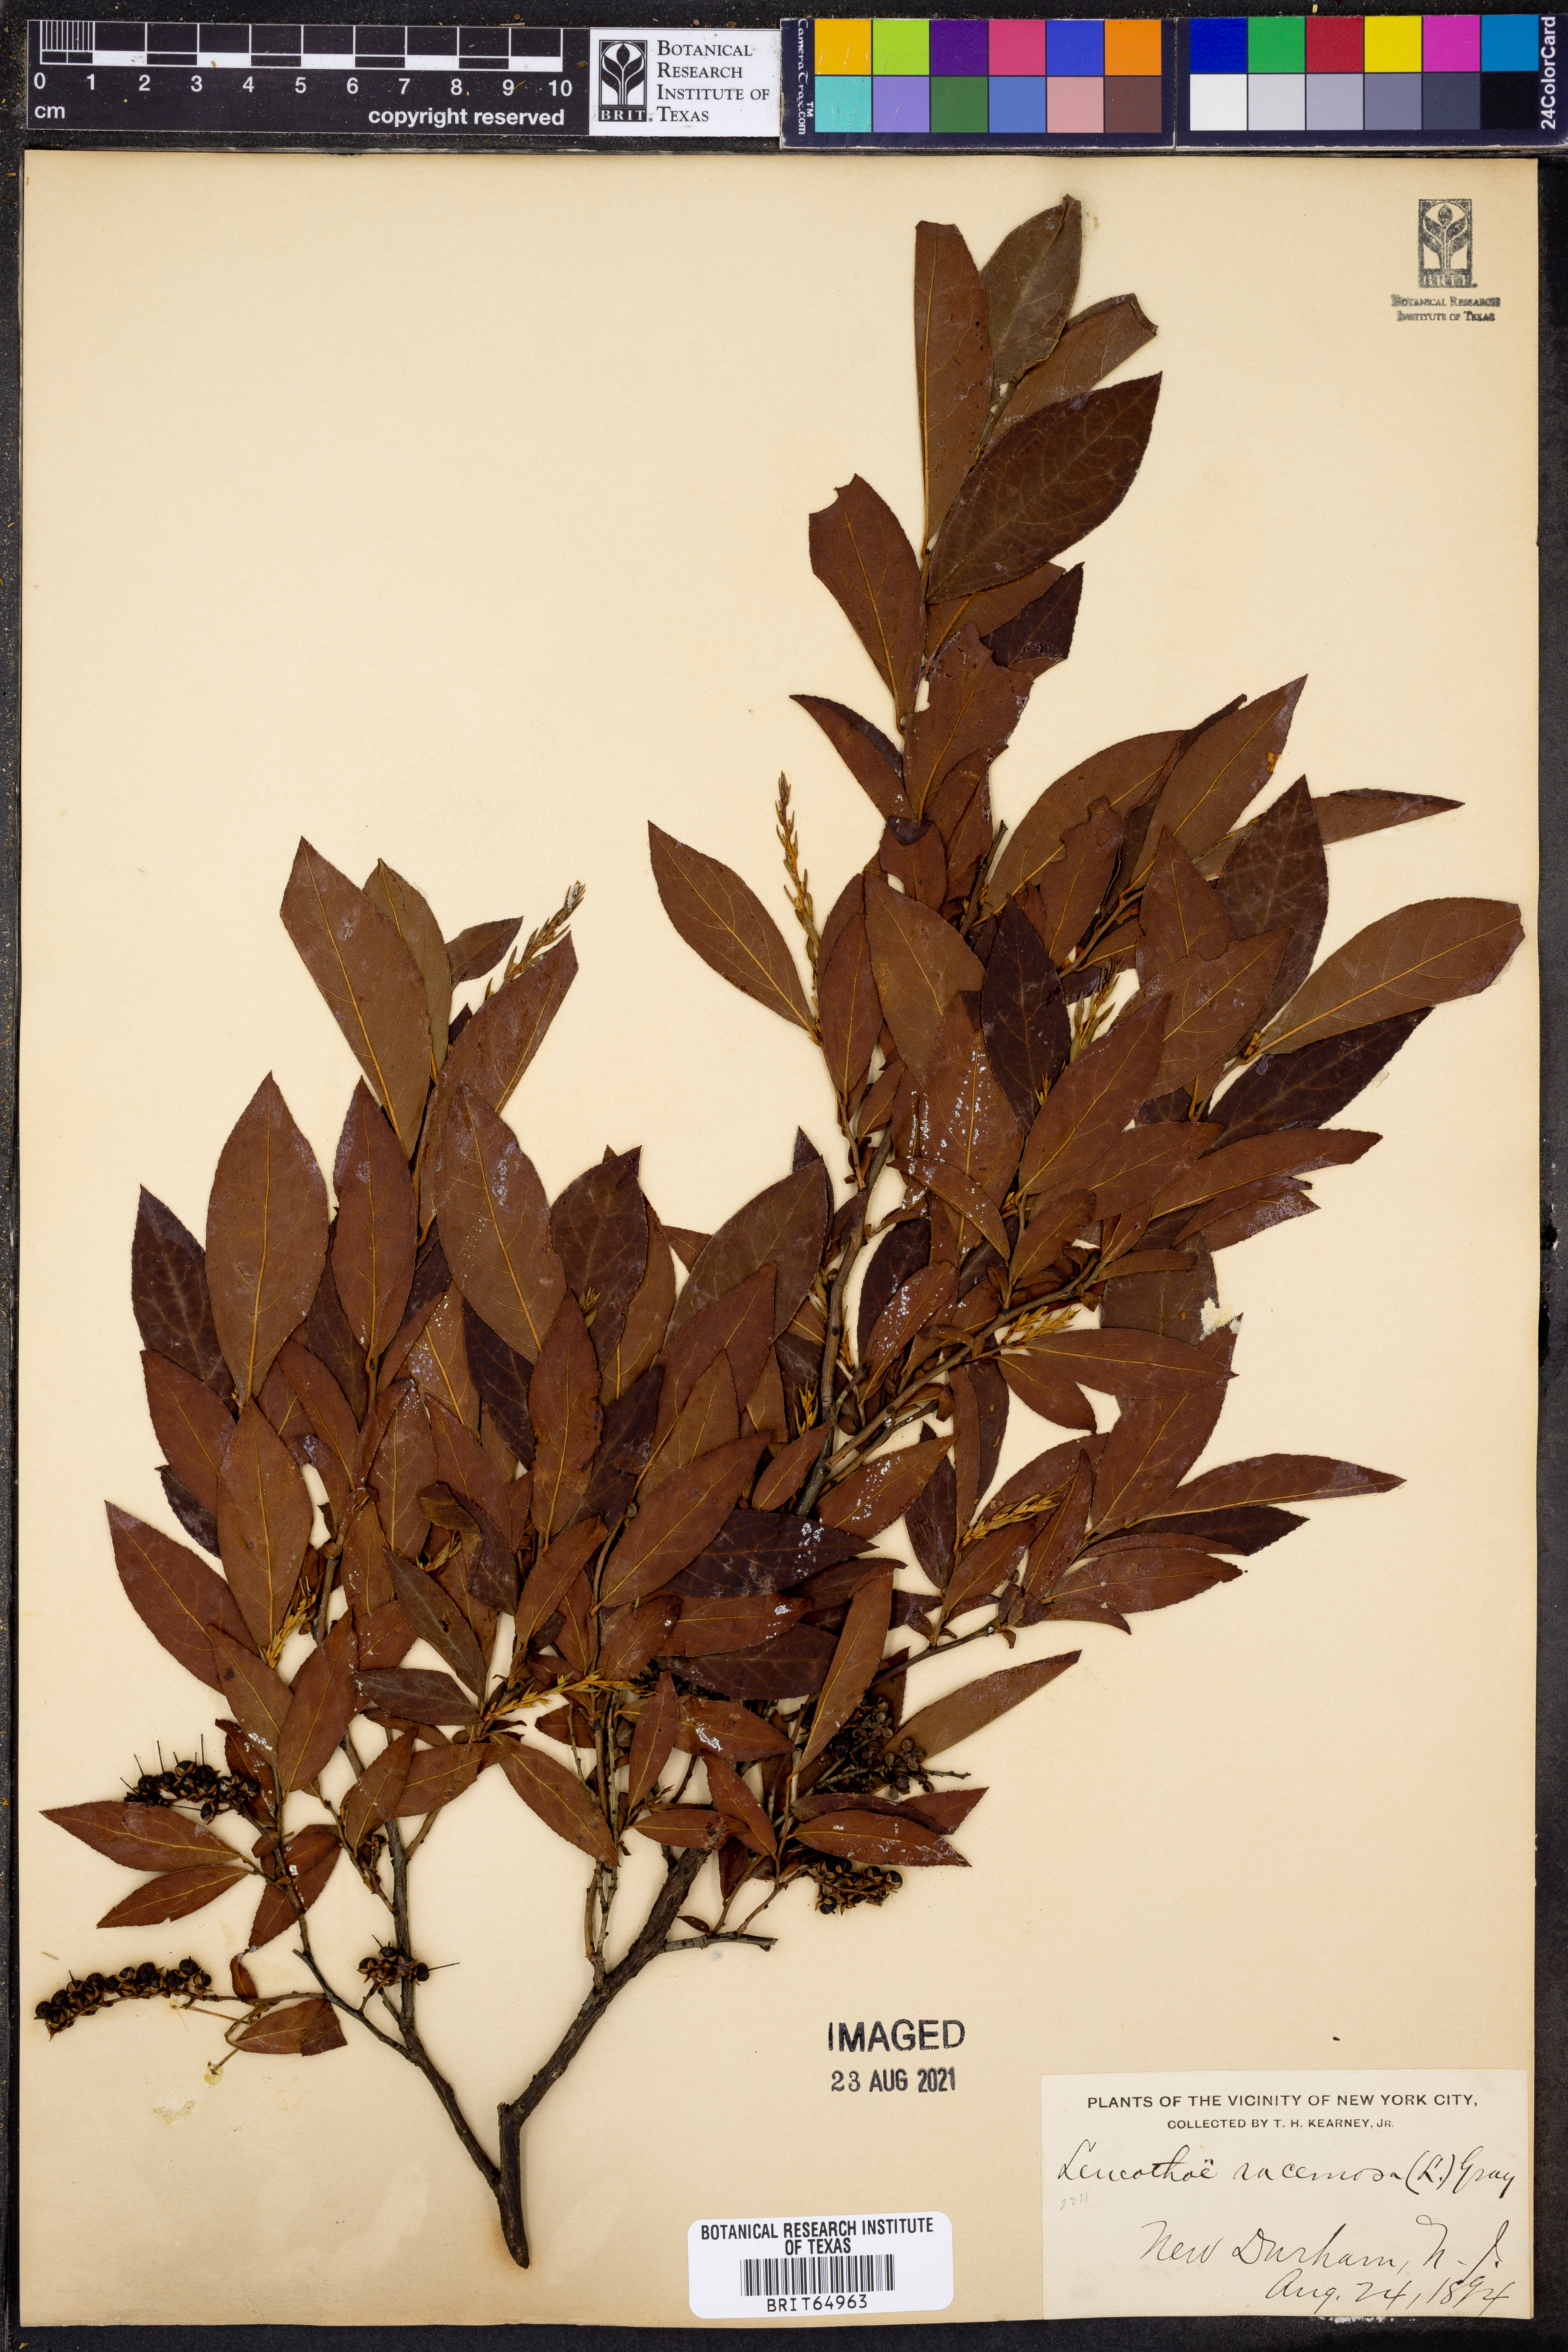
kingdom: Plantae
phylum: Tracheophyta
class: Magnoliopsida
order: Ericales
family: Ericaceae
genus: Eubotrys
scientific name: Eubotrys racemosa
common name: Fetterbush
